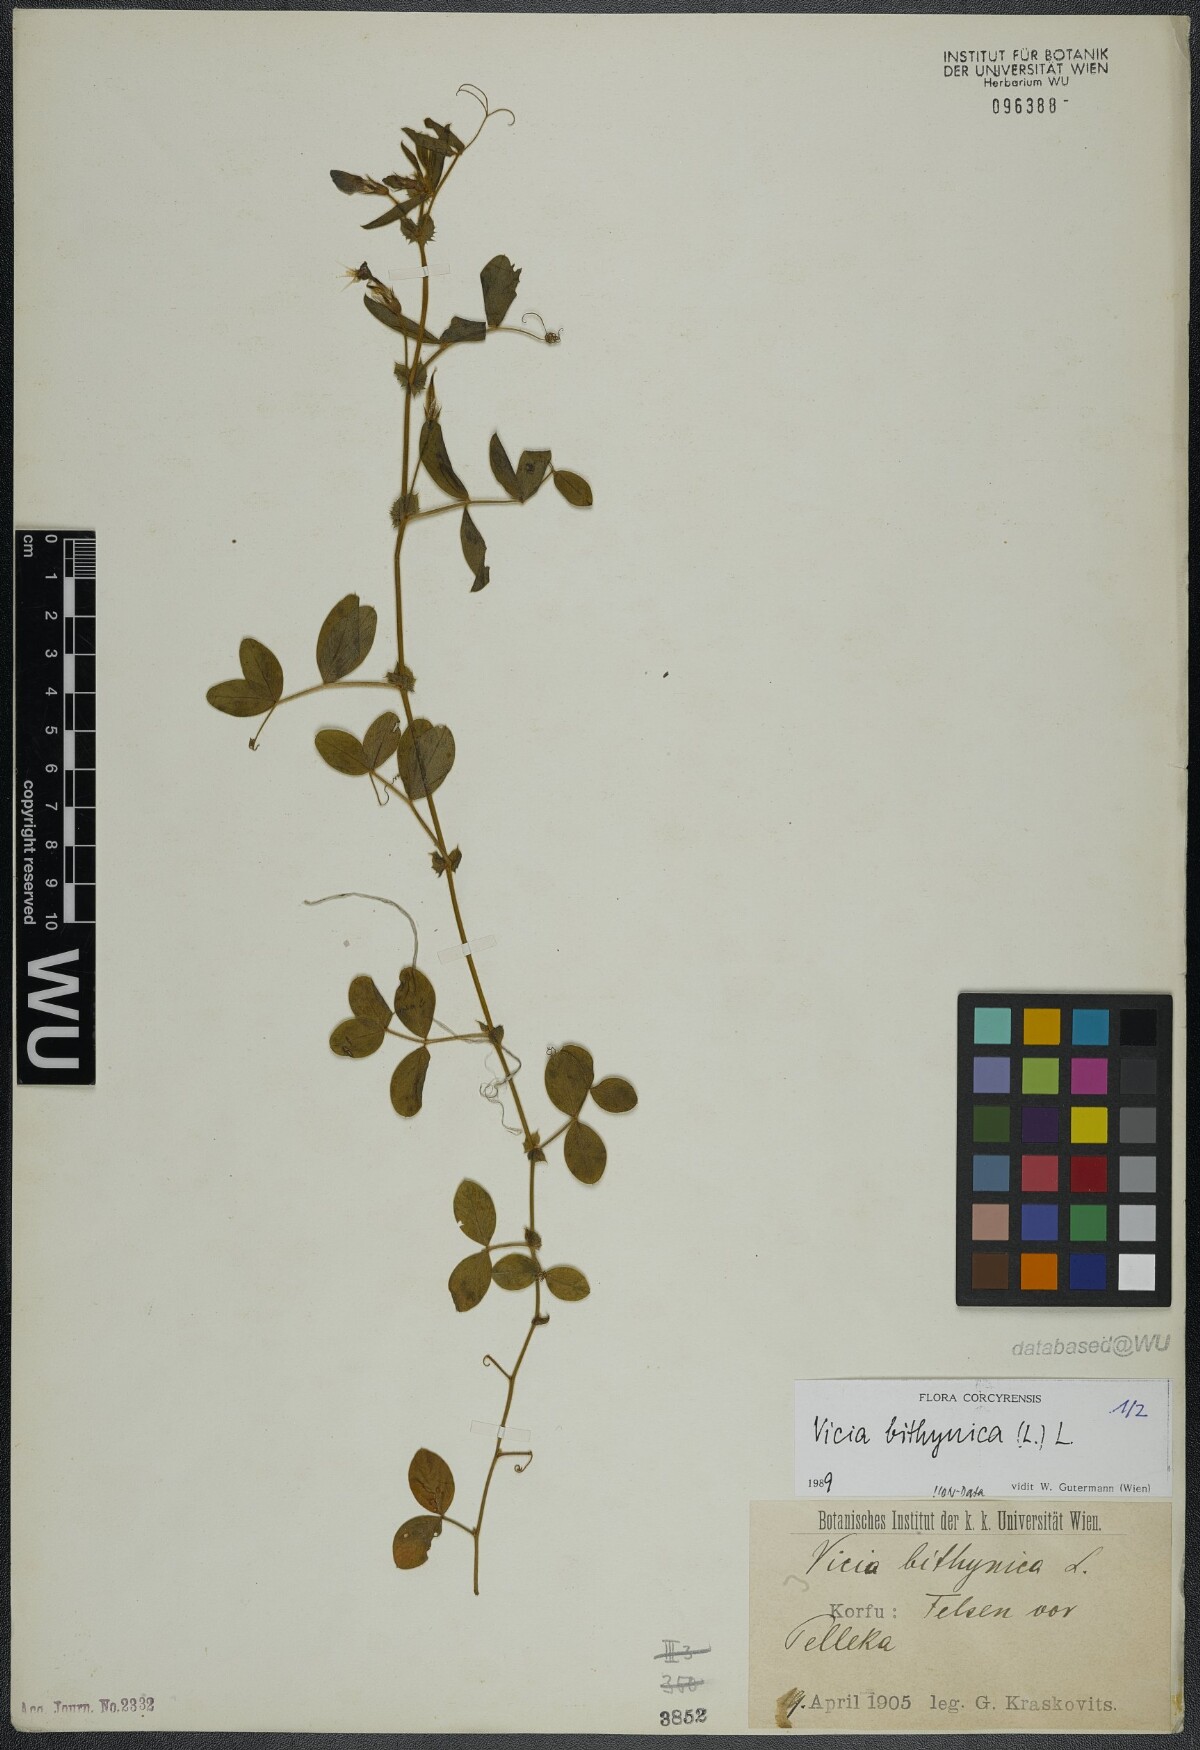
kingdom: Plantae
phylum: Tracheophyta
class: Magnoliopsida
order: Fabales
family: Fabaceae
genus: Vicia
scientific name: Vicia bithynica
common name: Bithynian vetch
